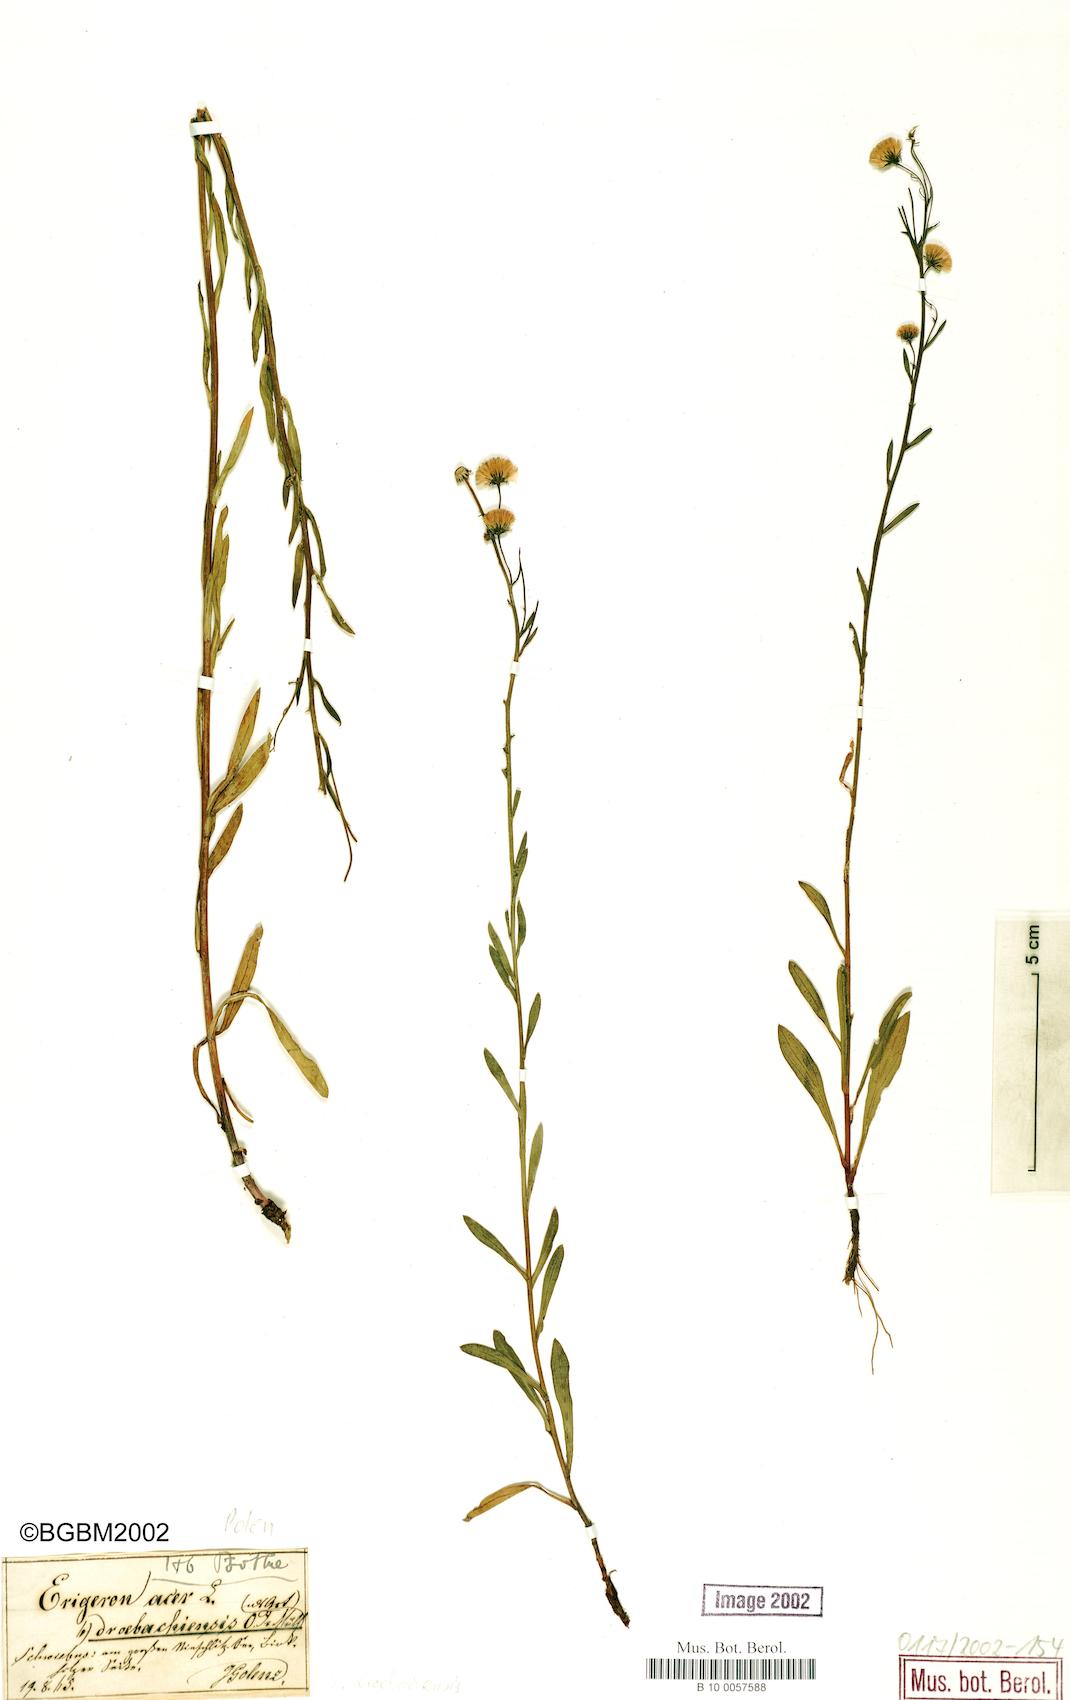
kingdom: Plantae
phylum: Tracheophyta
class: Magnoliopsida
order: Asterales
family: Asteraceae
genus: Erigeron
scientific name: Erigeron acris
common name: Blue fleabane
